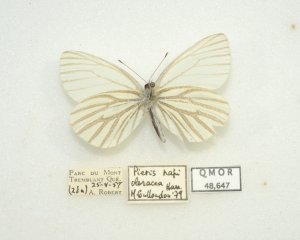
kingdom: Animalia
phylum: Arthropoda
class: Insecta
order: Lepidoptera
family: Pieridae
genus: Pieris
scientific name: Pieris oleracea
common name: Mustard White
